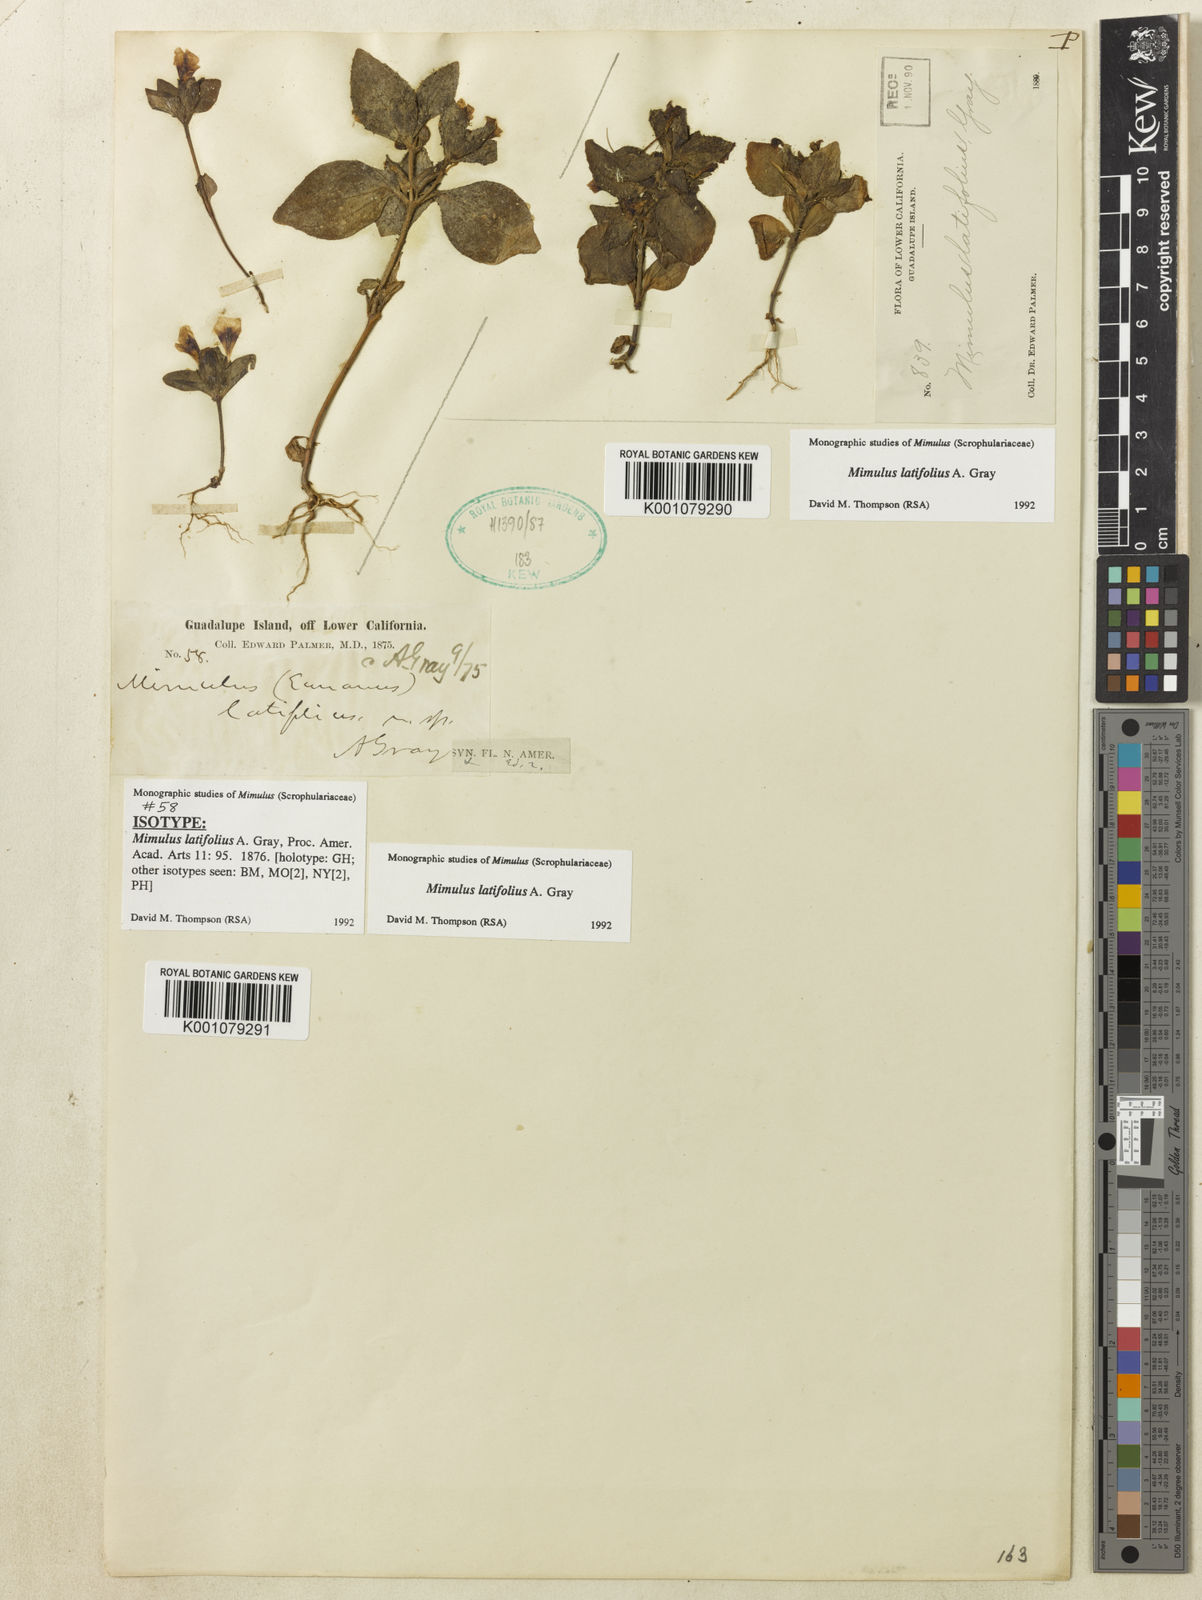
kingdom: Plantae
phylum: Tracheophyta
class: Magnoliopsida
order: Lamiales
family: Phrymaceae
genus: Diplacus
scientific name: Diplacus brandegeei
